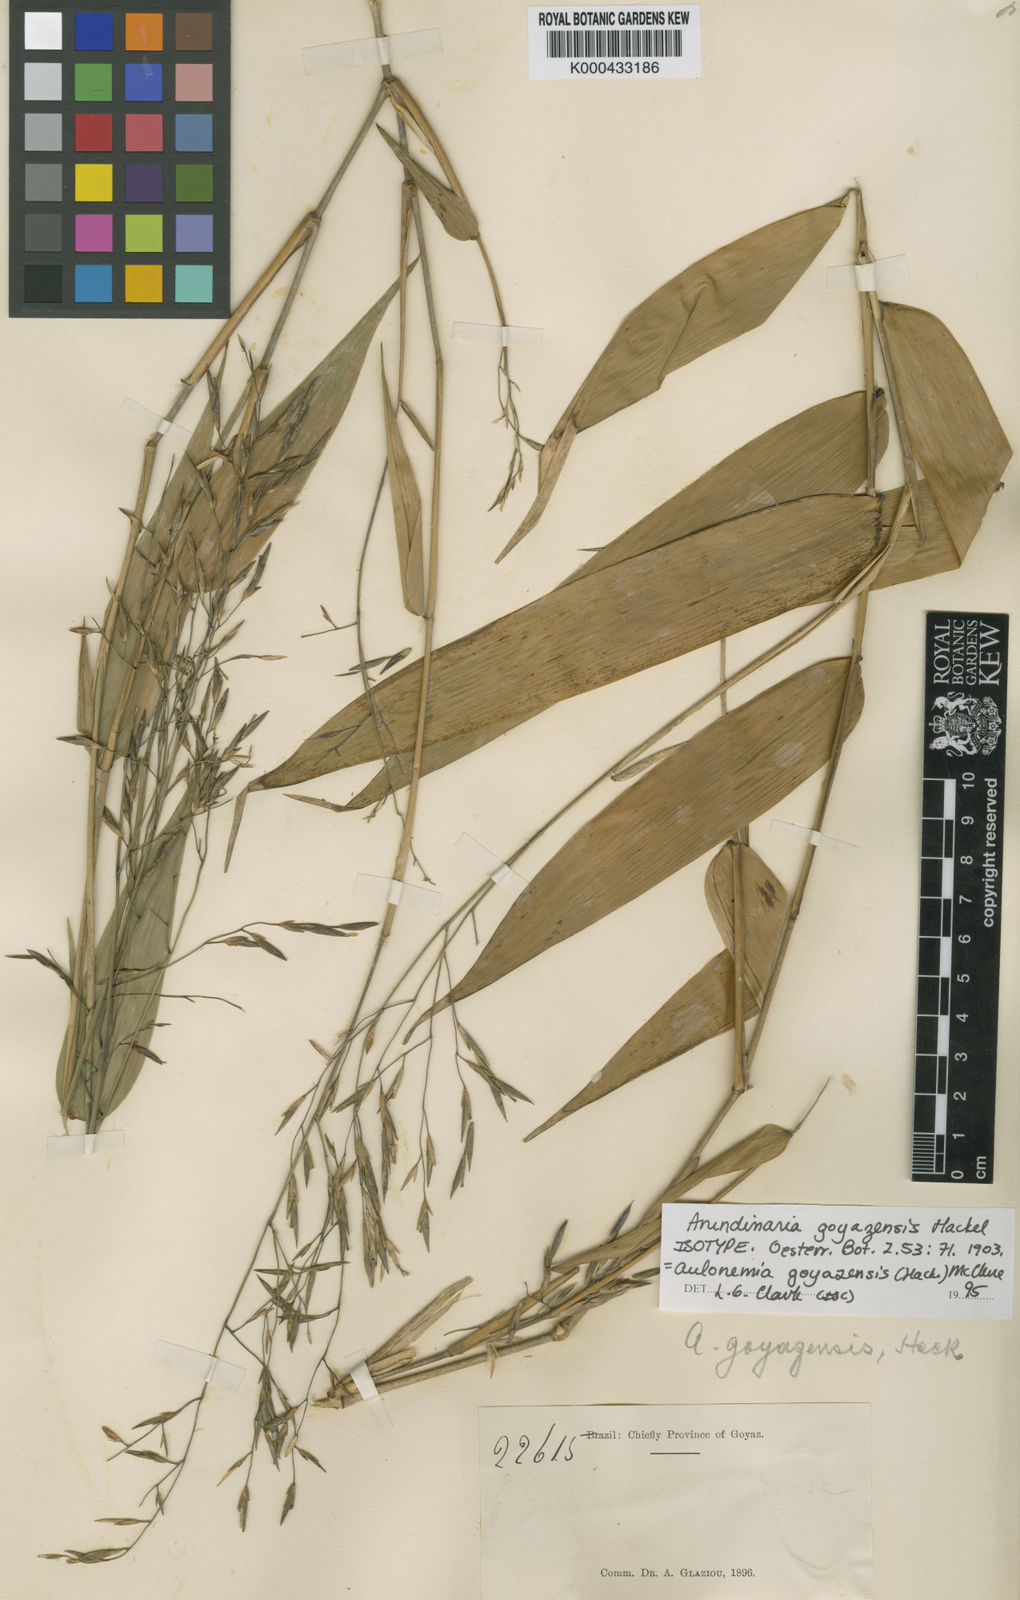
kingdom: Plantae
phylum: Tracheophyta
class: Liliopsida
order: Poales
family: Poaceae
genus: Aulonemia
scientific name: Aulonemia goyazensis
